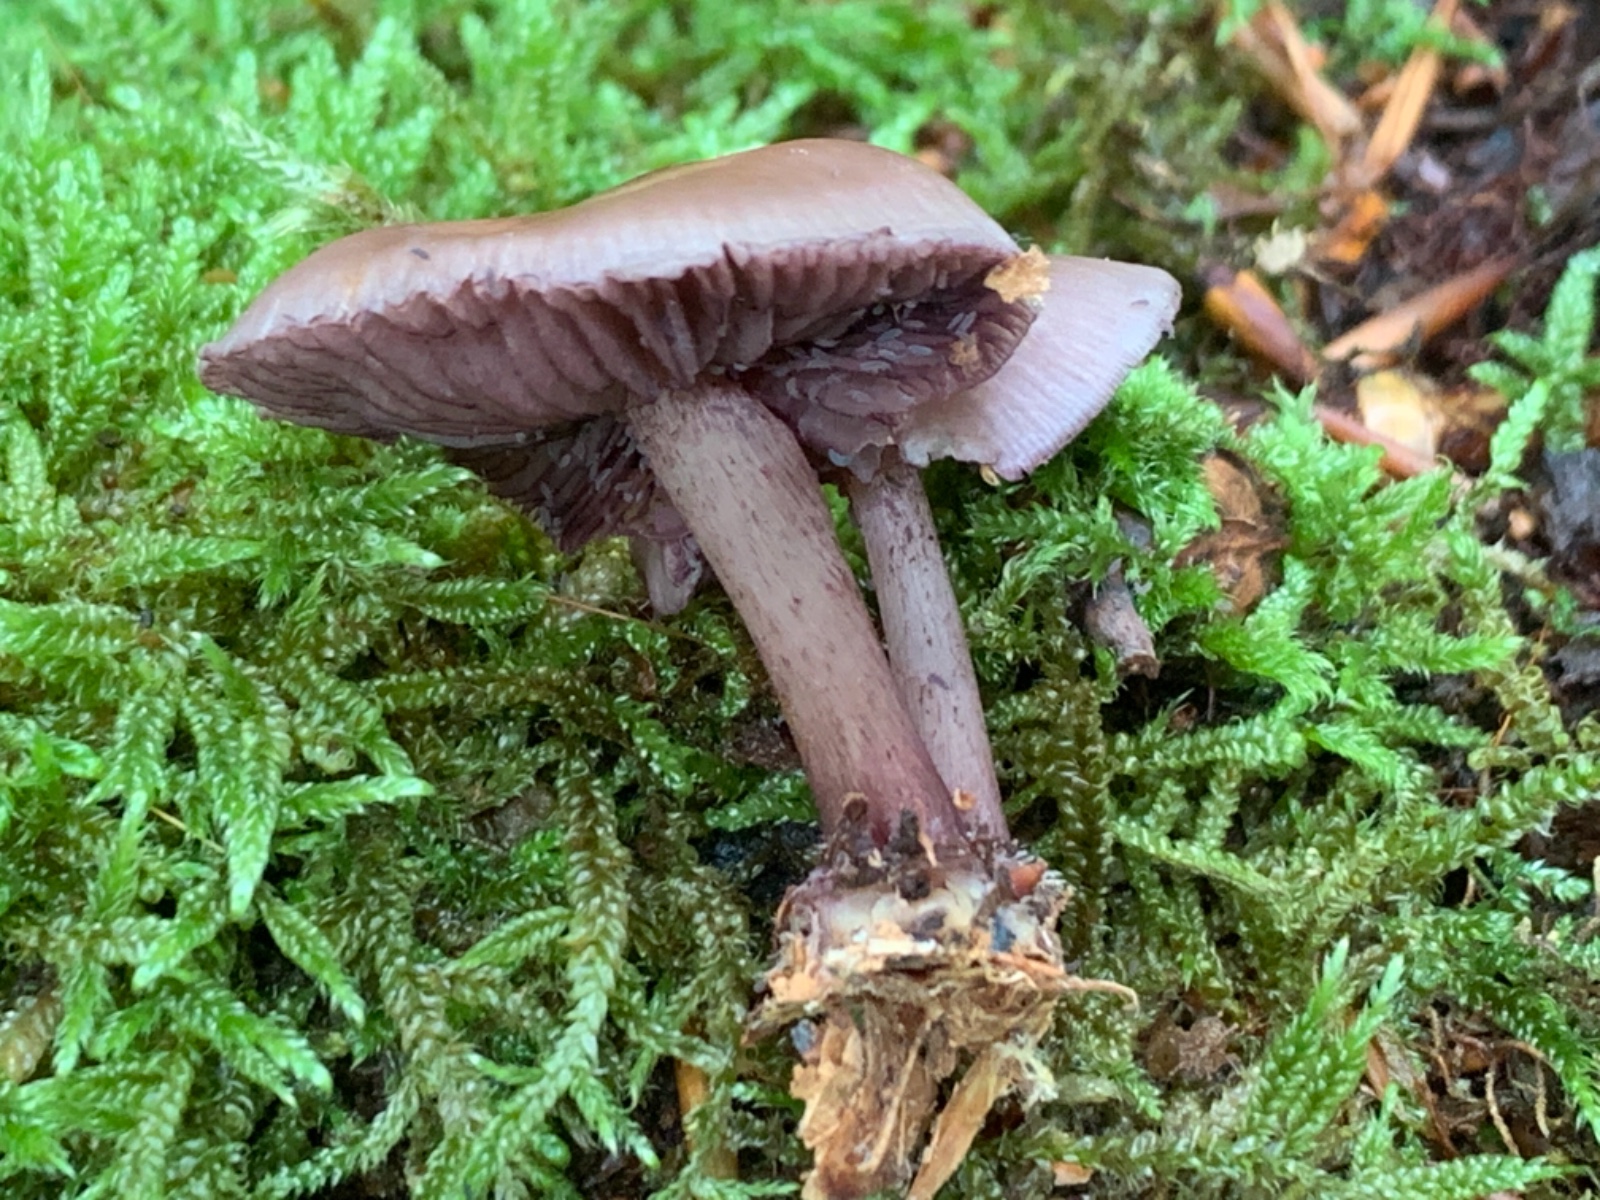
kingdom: Fungi
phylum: Basidiomycota
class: Agaricomycetes
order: Agaricales
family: Mycenaceae
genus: Mycena
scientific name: Mycena pelianthina
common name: mørkbladet huesvamp
